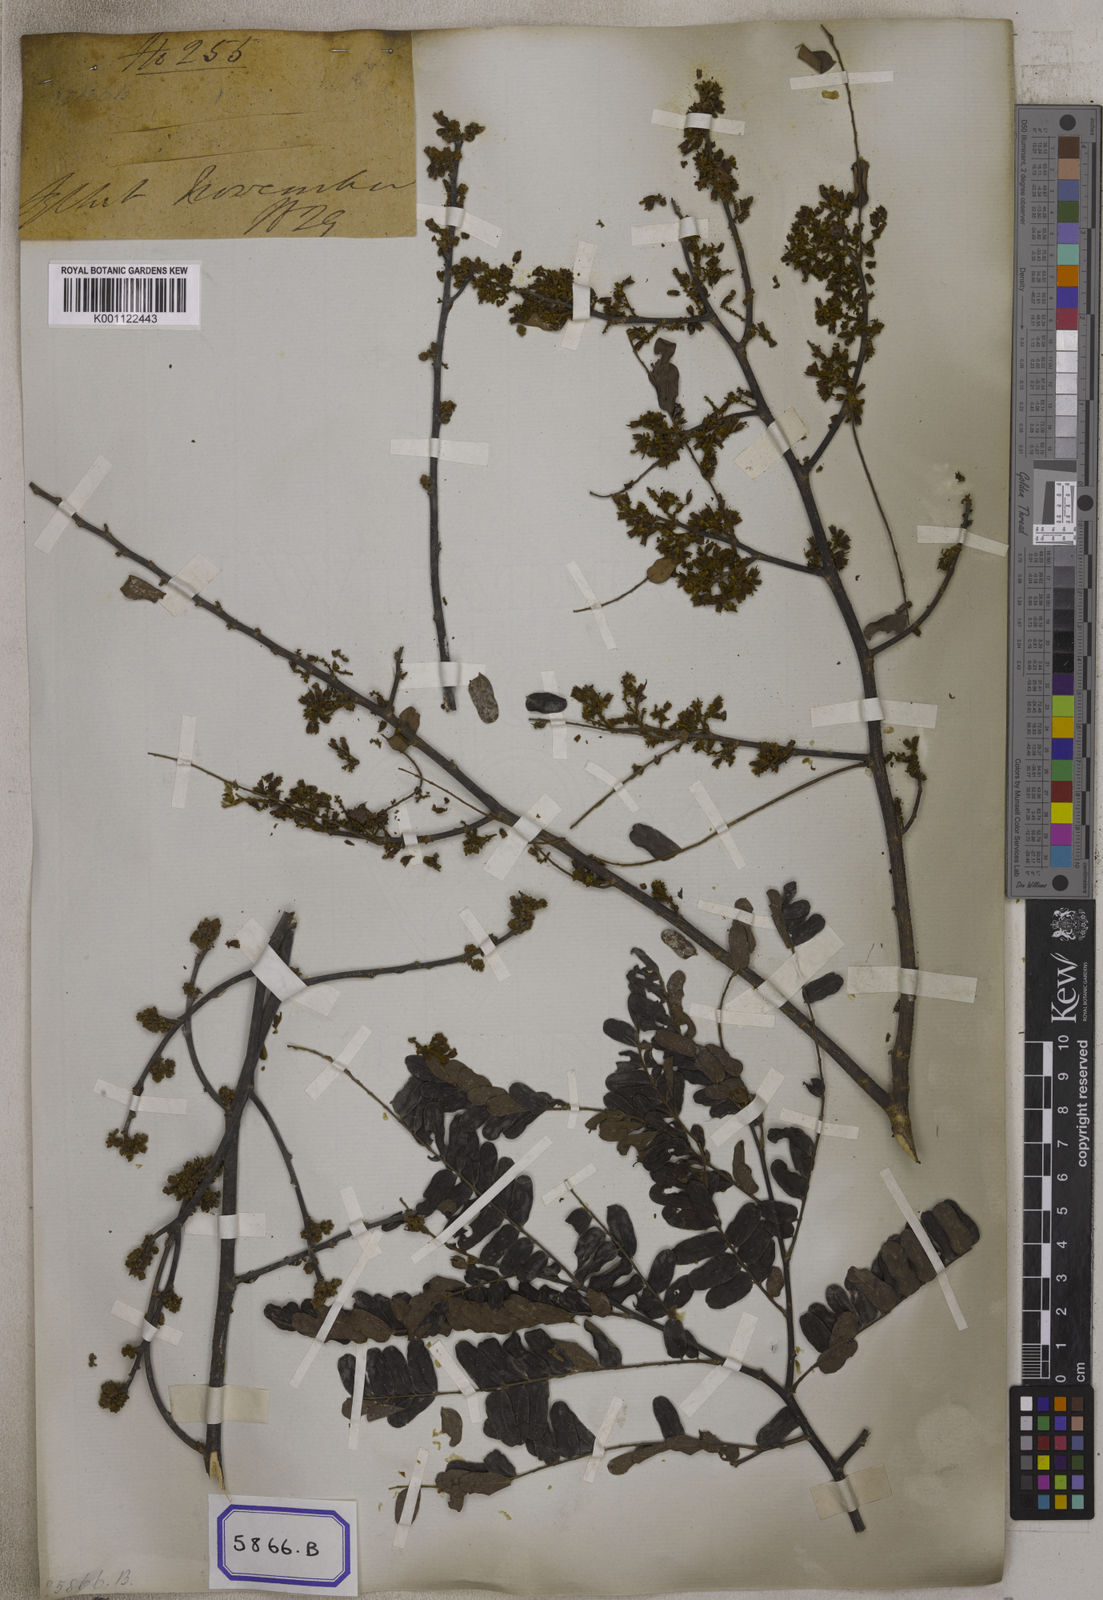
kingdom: Plantae
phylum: Tracheophyta
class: Magnoliopsida
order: Fabales
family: Fabaceae
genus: Dalbergia
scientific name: Dalbergia
